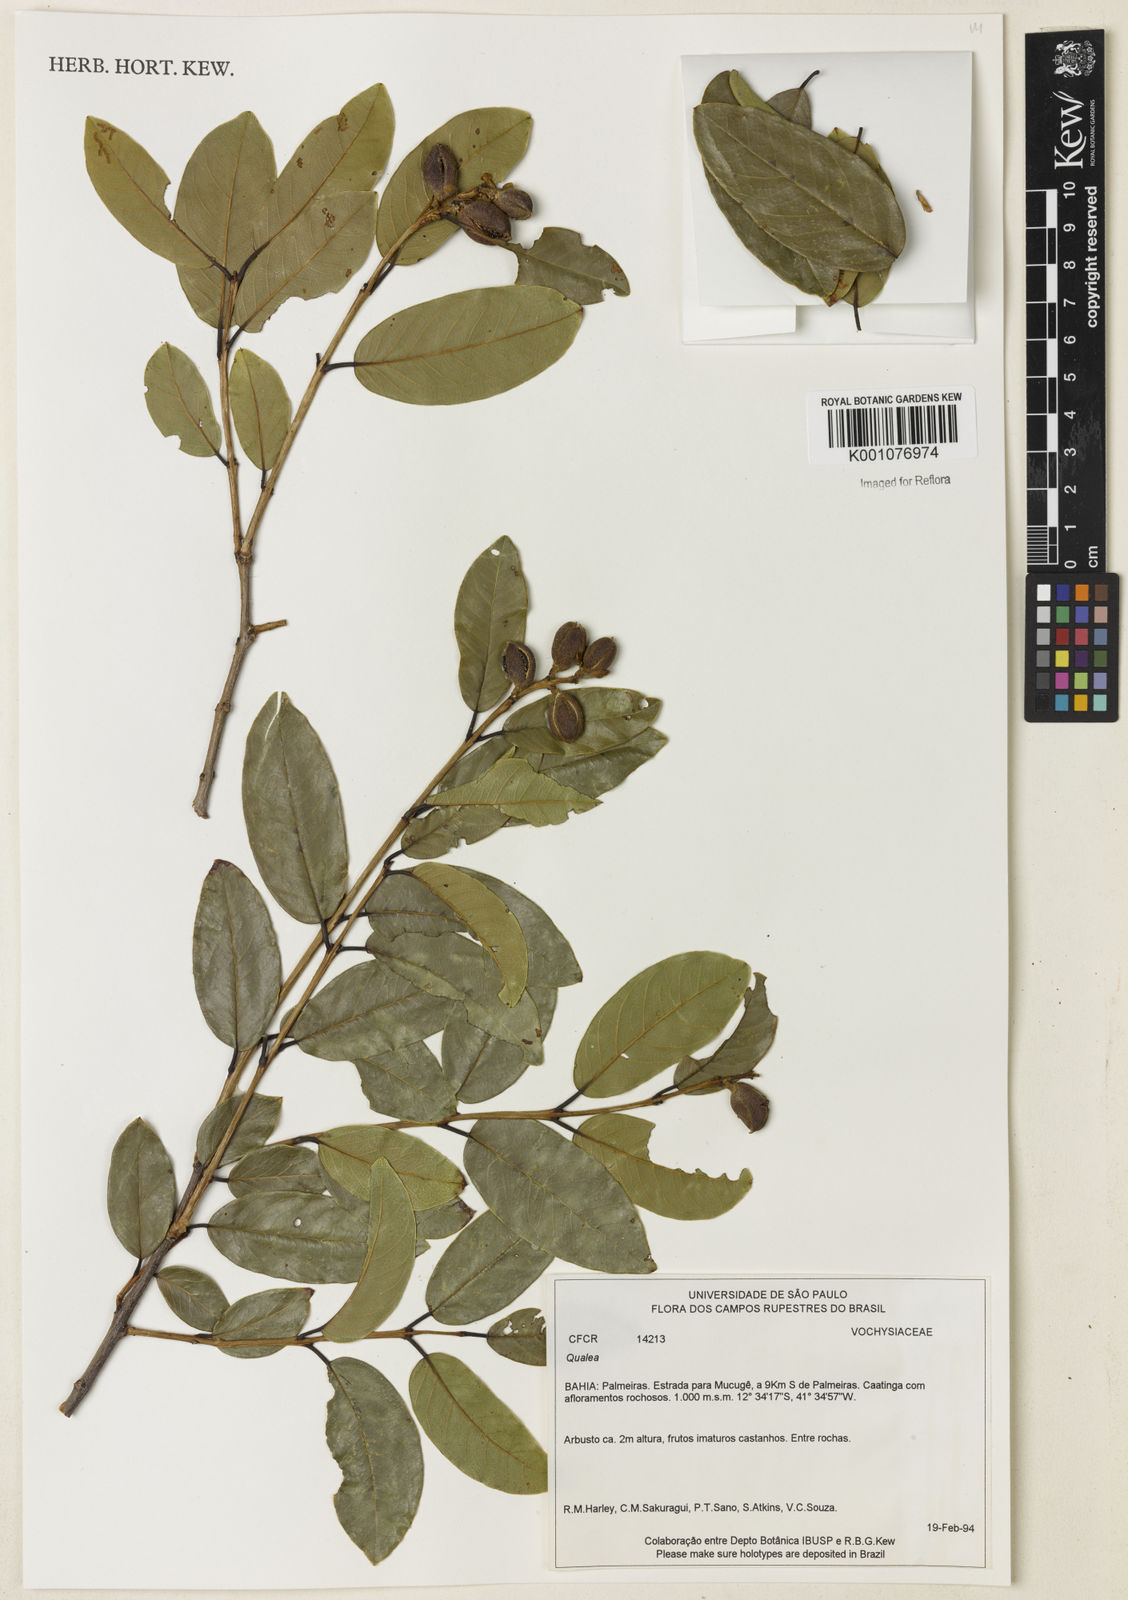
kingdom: Plantae
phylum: Tracheophyta
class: Magnoliopsida
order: Myrtales
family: Vochysiaceae
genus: Qualea
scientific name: Qualea
